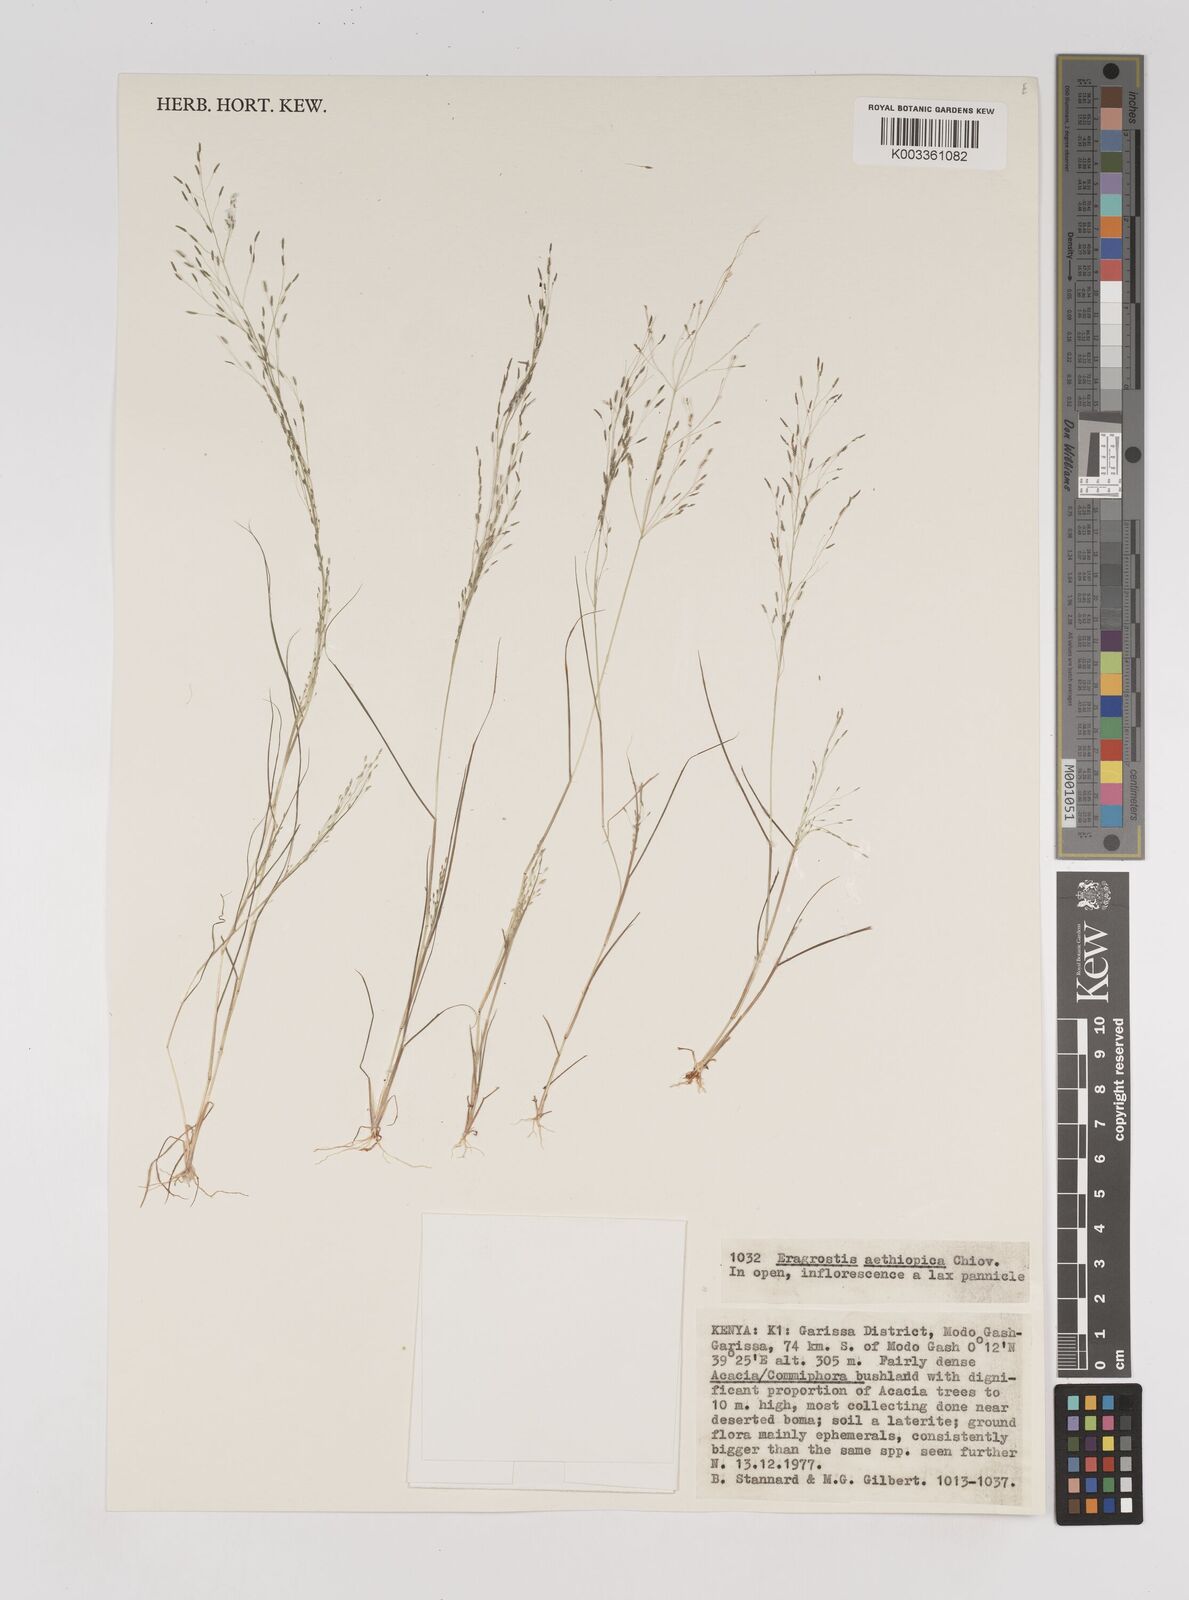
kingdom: Plantae
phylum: Tracheophyta
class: Liliopsida
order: Poales
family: Poaceae
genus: Eragrostis
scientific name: Eragrostis aethiopica
